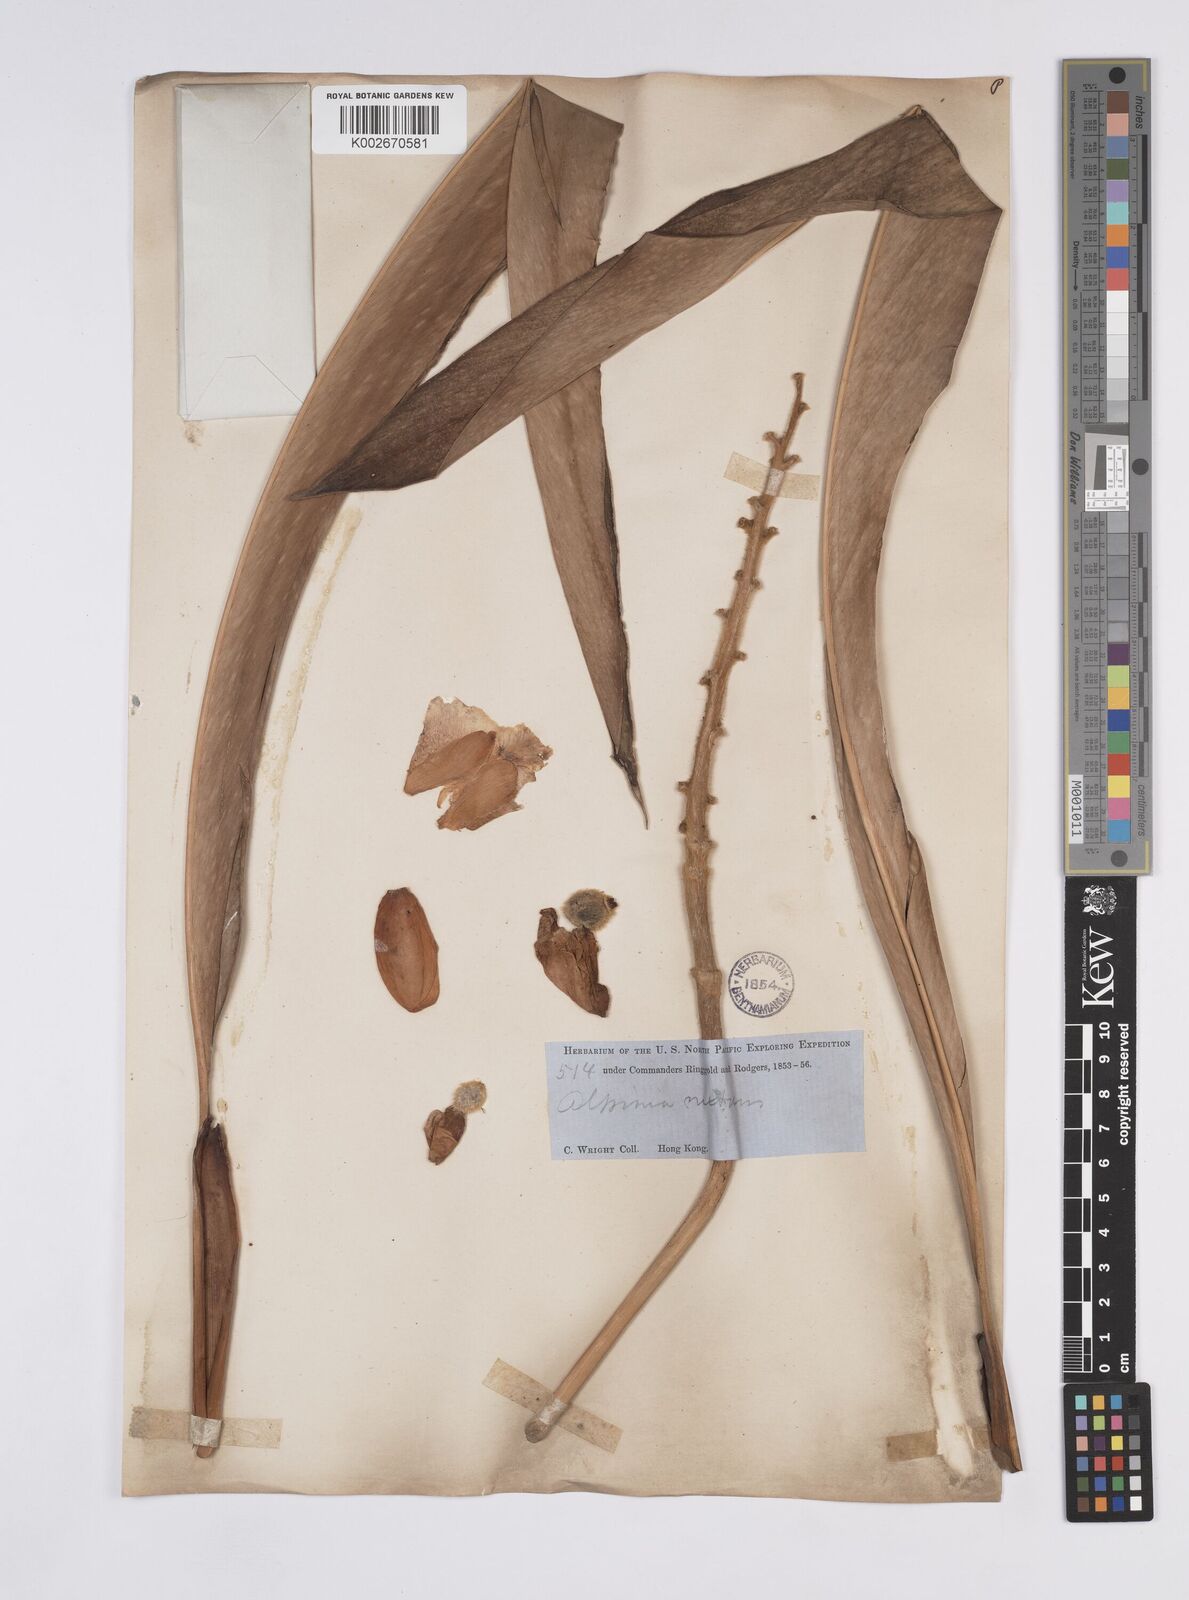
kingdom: Plantae
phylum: Tracheophyta
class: Liliopsida
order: Zingiberales
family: Zingiberaceae
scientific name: Zingiberaceae
